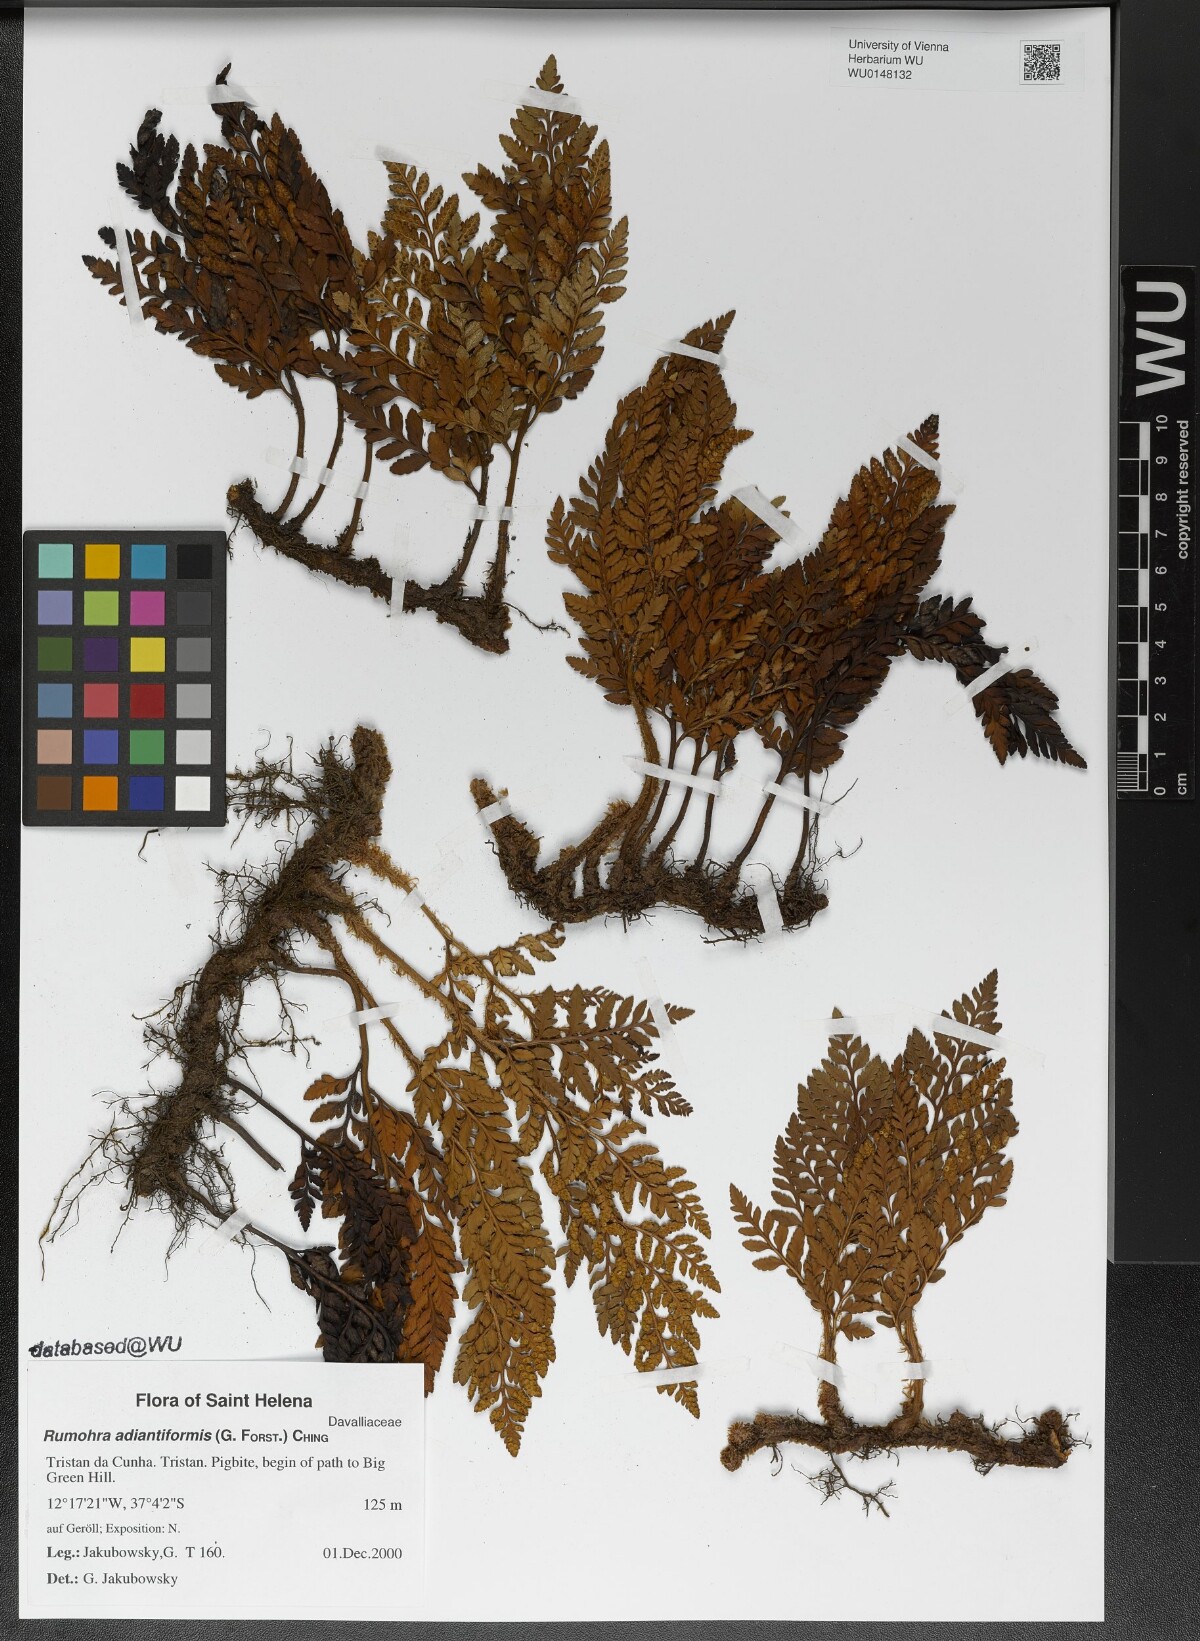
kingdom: Plantae
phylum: Tracheophyta
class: Polypodiopsida
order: Polypodiales
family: Dryopteridaceae
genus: Rumohra
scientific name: Rumohra adiantiformis
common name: Leather fern
